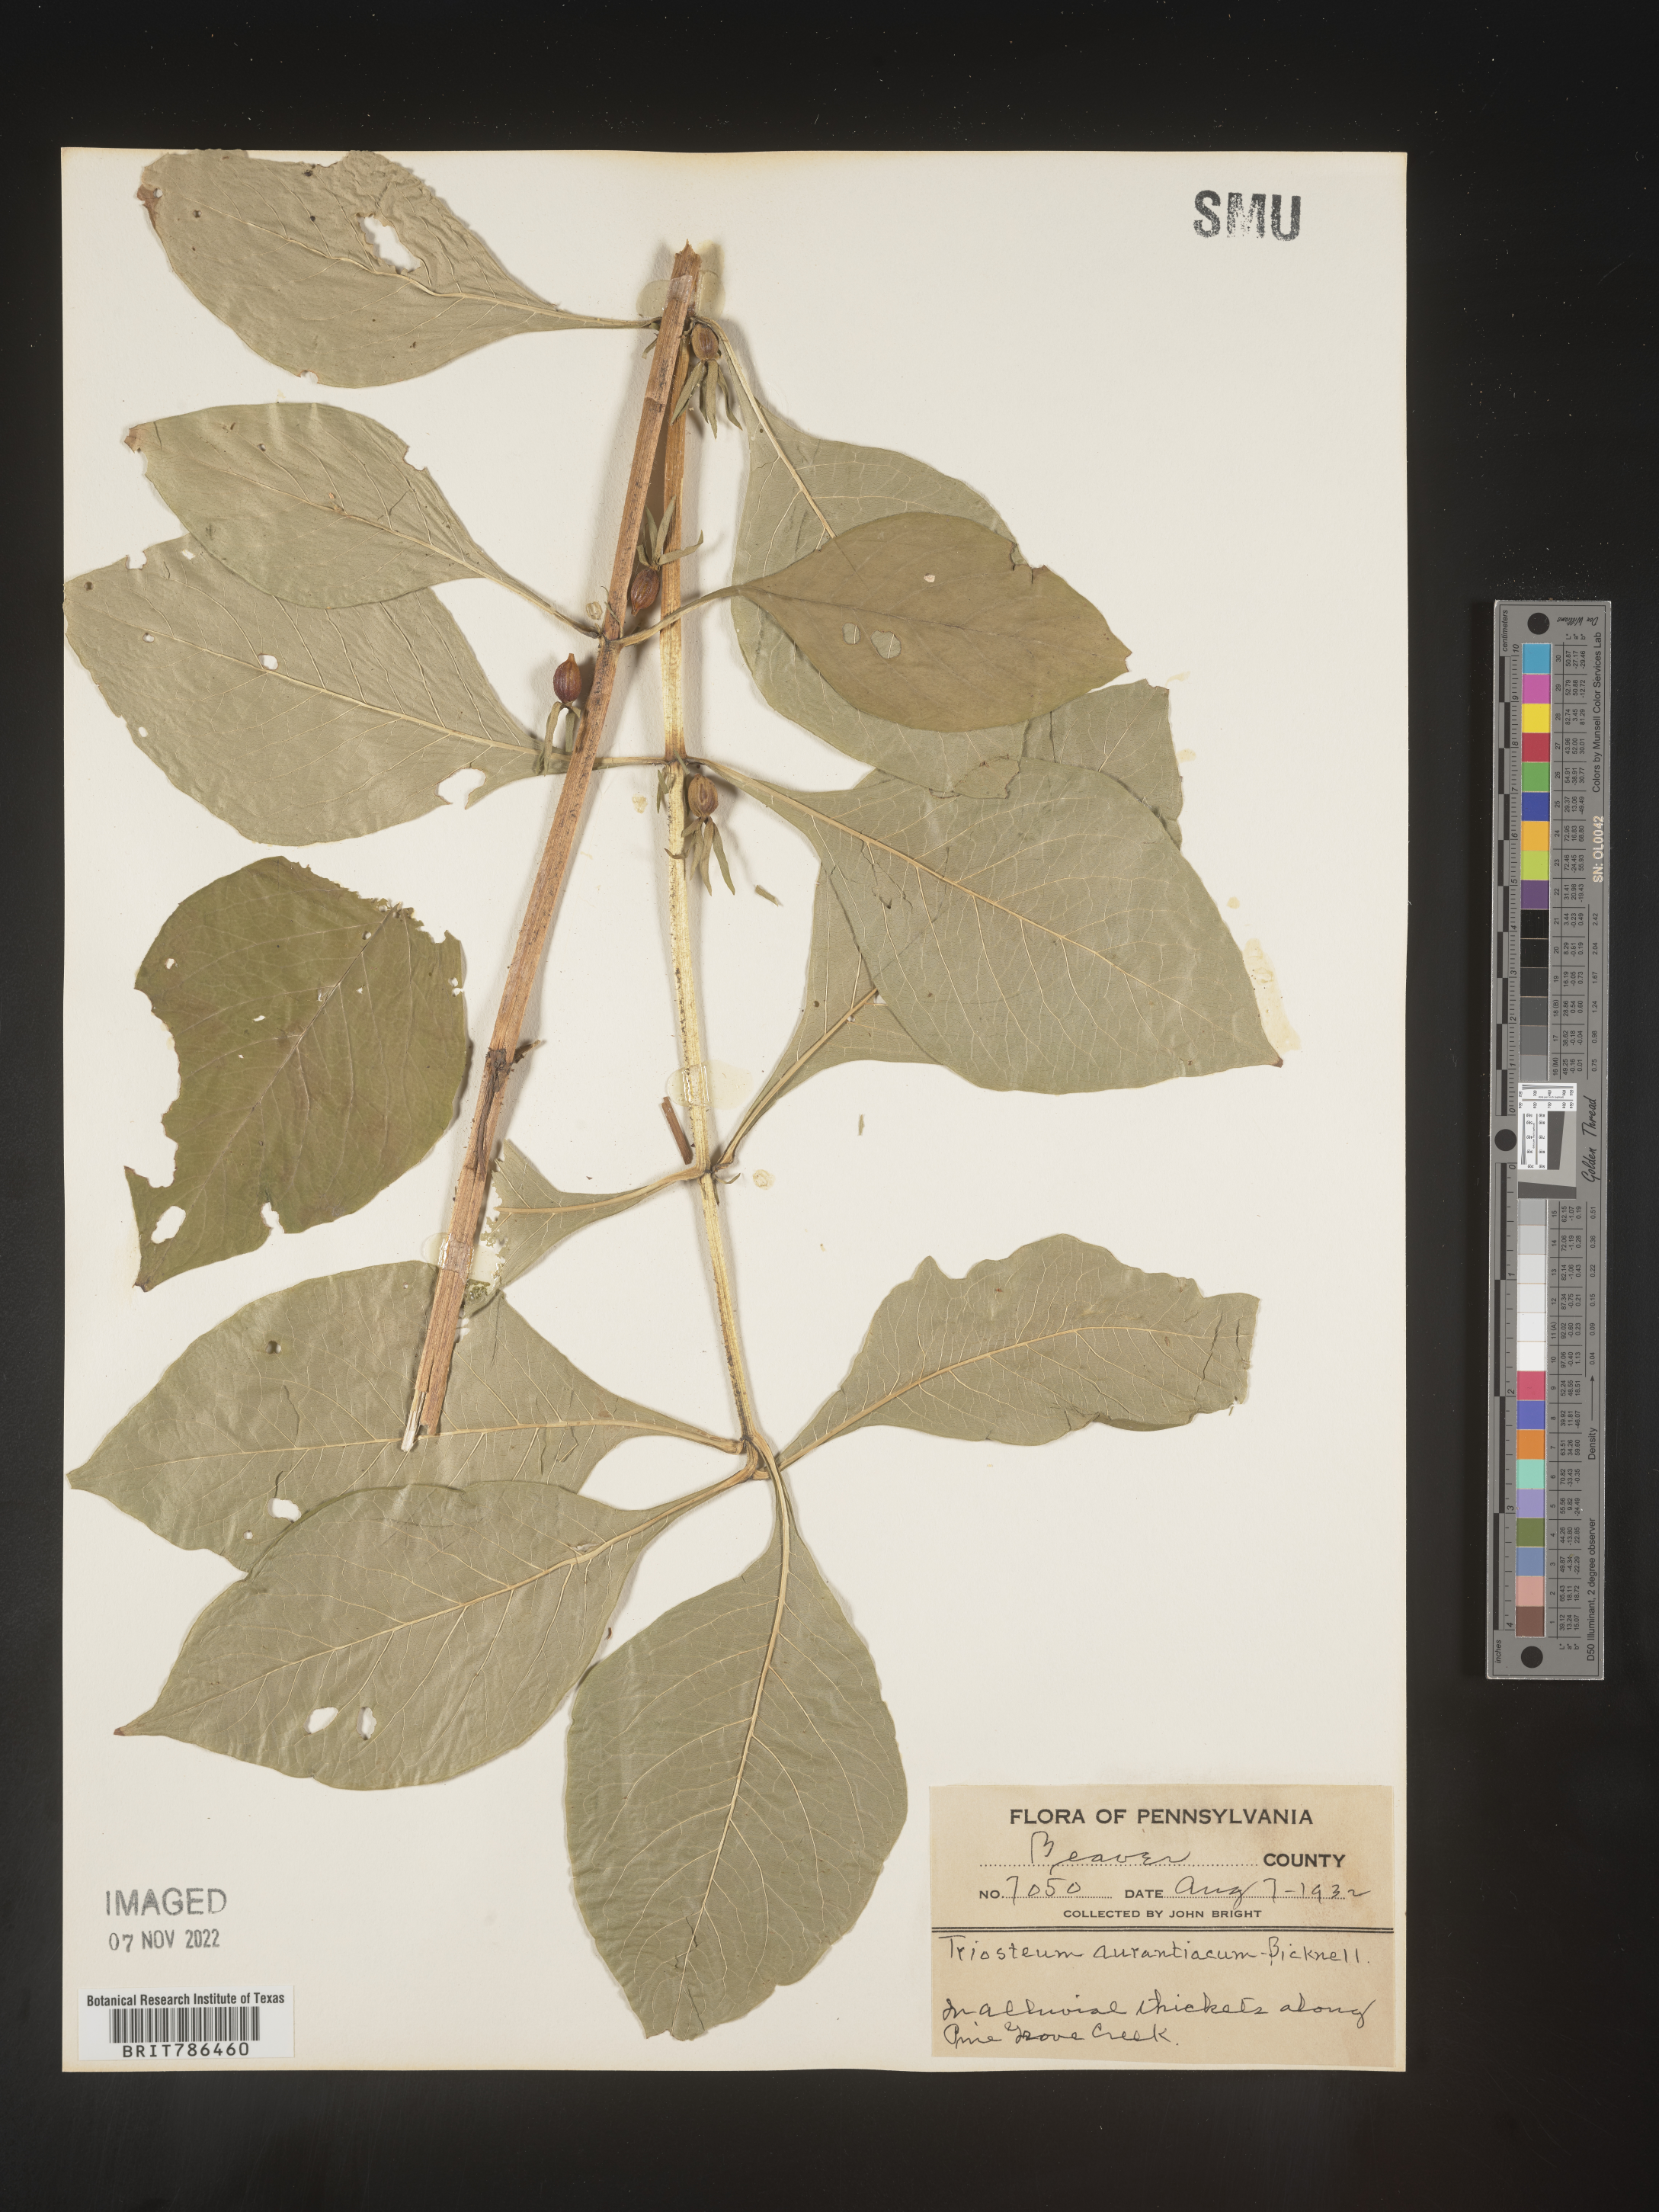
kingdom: Plantae
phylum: Tracheophyta
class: Magnoliopsida
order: Dipsacales
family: Caprifoliaceae
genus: Triosteum
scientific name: Triosteum aurantiacum
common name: Coffee tinker's-weed
